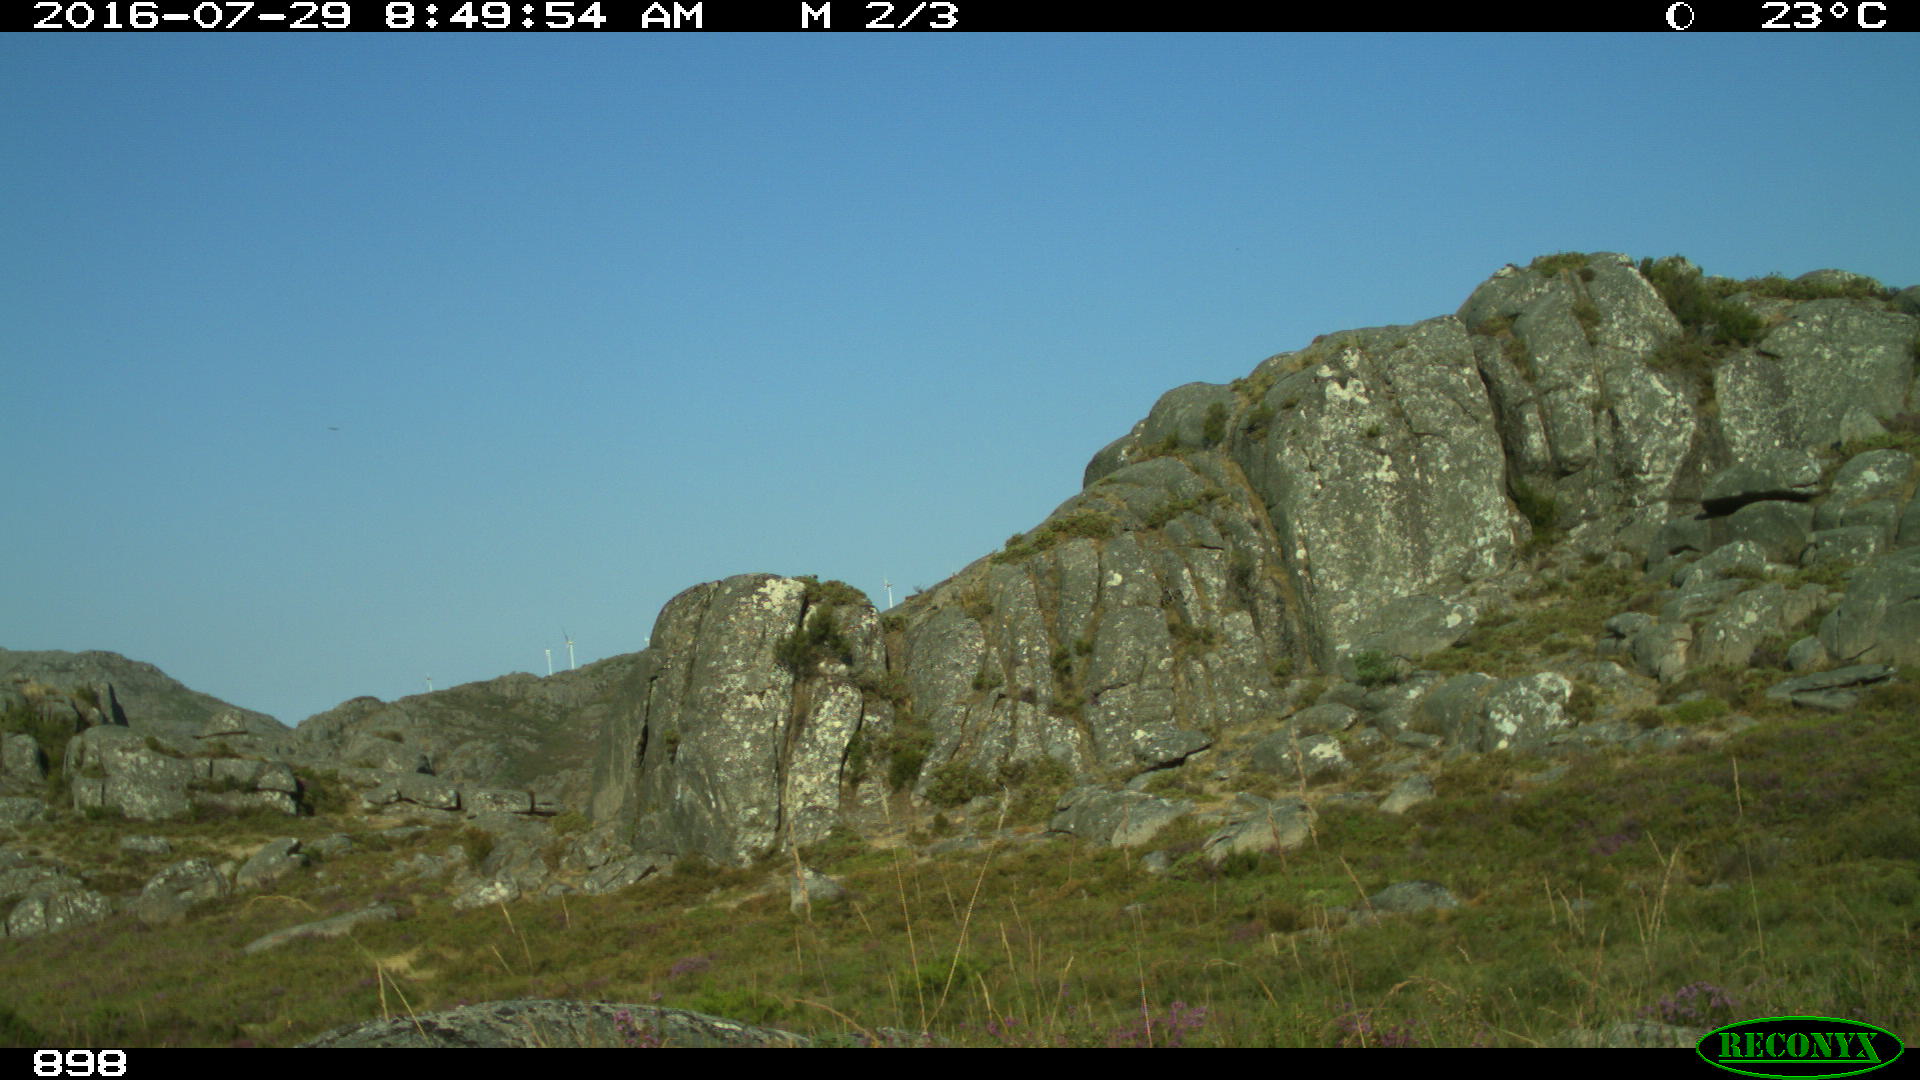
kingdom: Animalia
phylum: Chordata
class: Mammalia
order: Perissodactyla
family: Equidae
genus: Equus
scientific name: Equus caballus
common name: Horse
